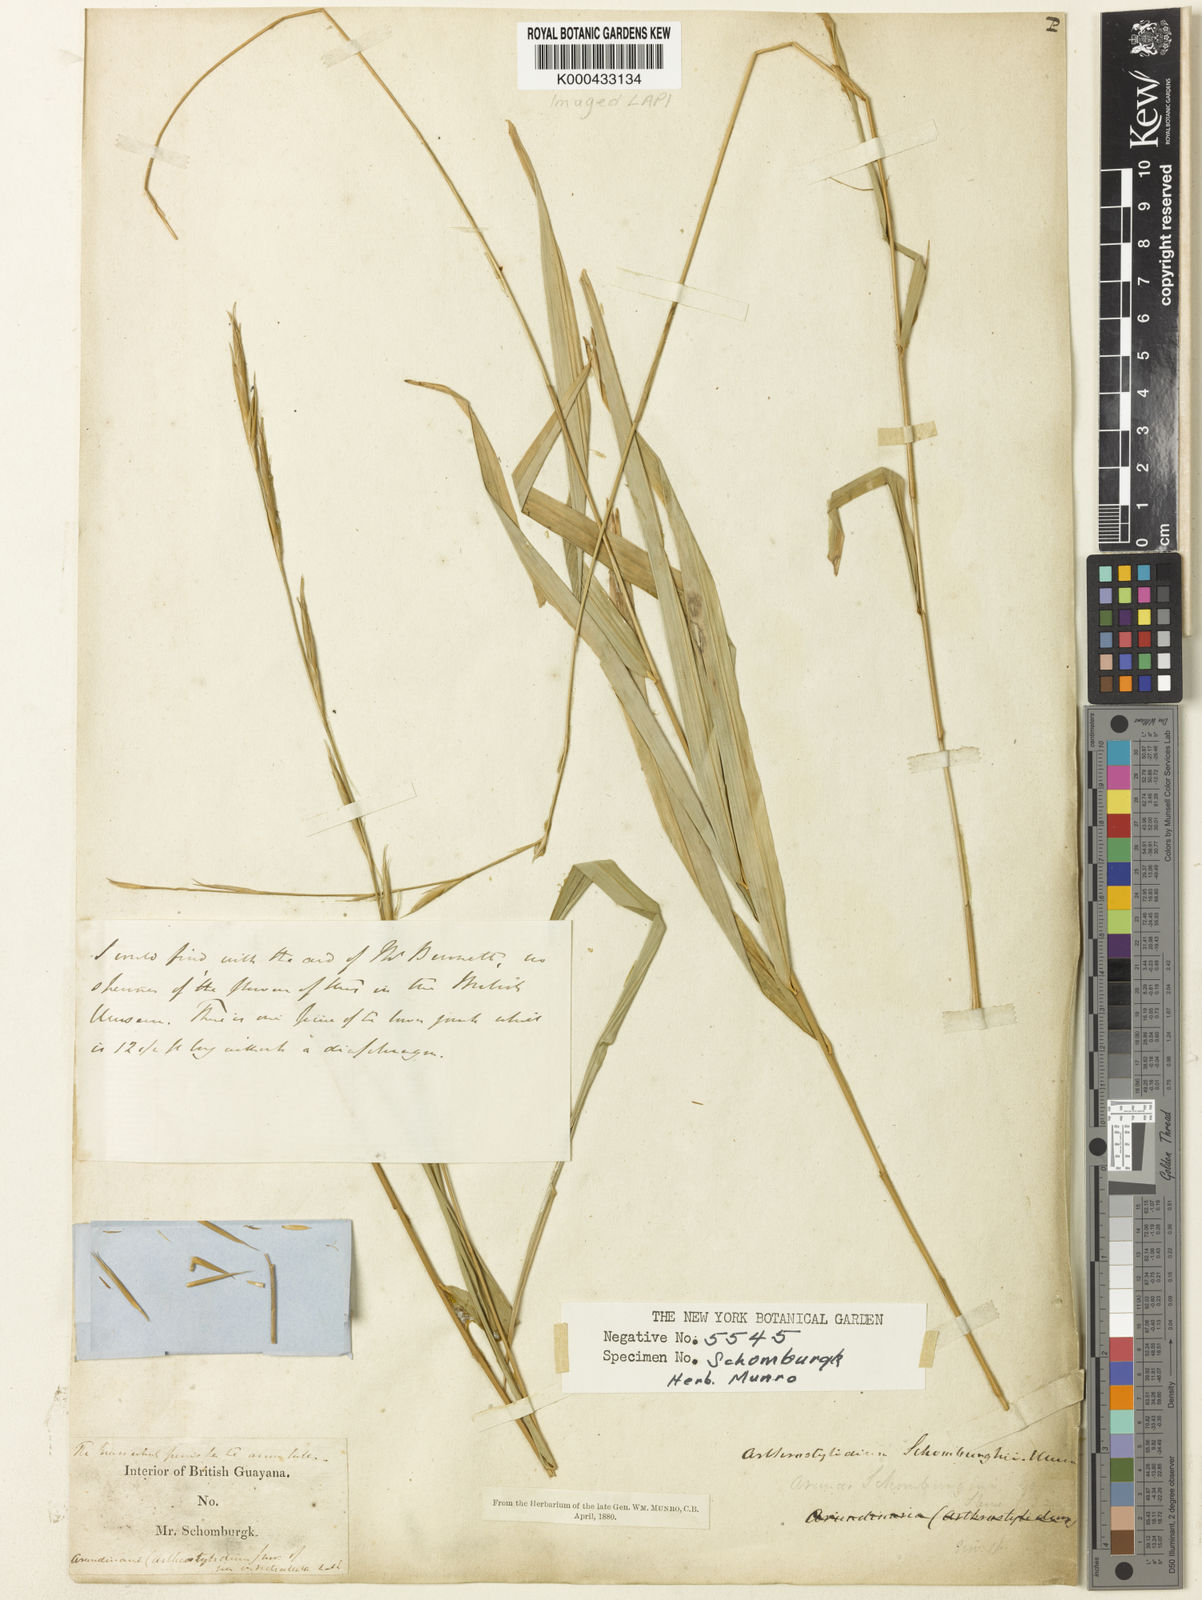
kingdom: Plantae
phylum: Tracheophyta
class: Liliopsida
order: Poales
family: Poaceae
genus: Arthrostylidium
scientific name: Arthrostylidium schomburgkii
